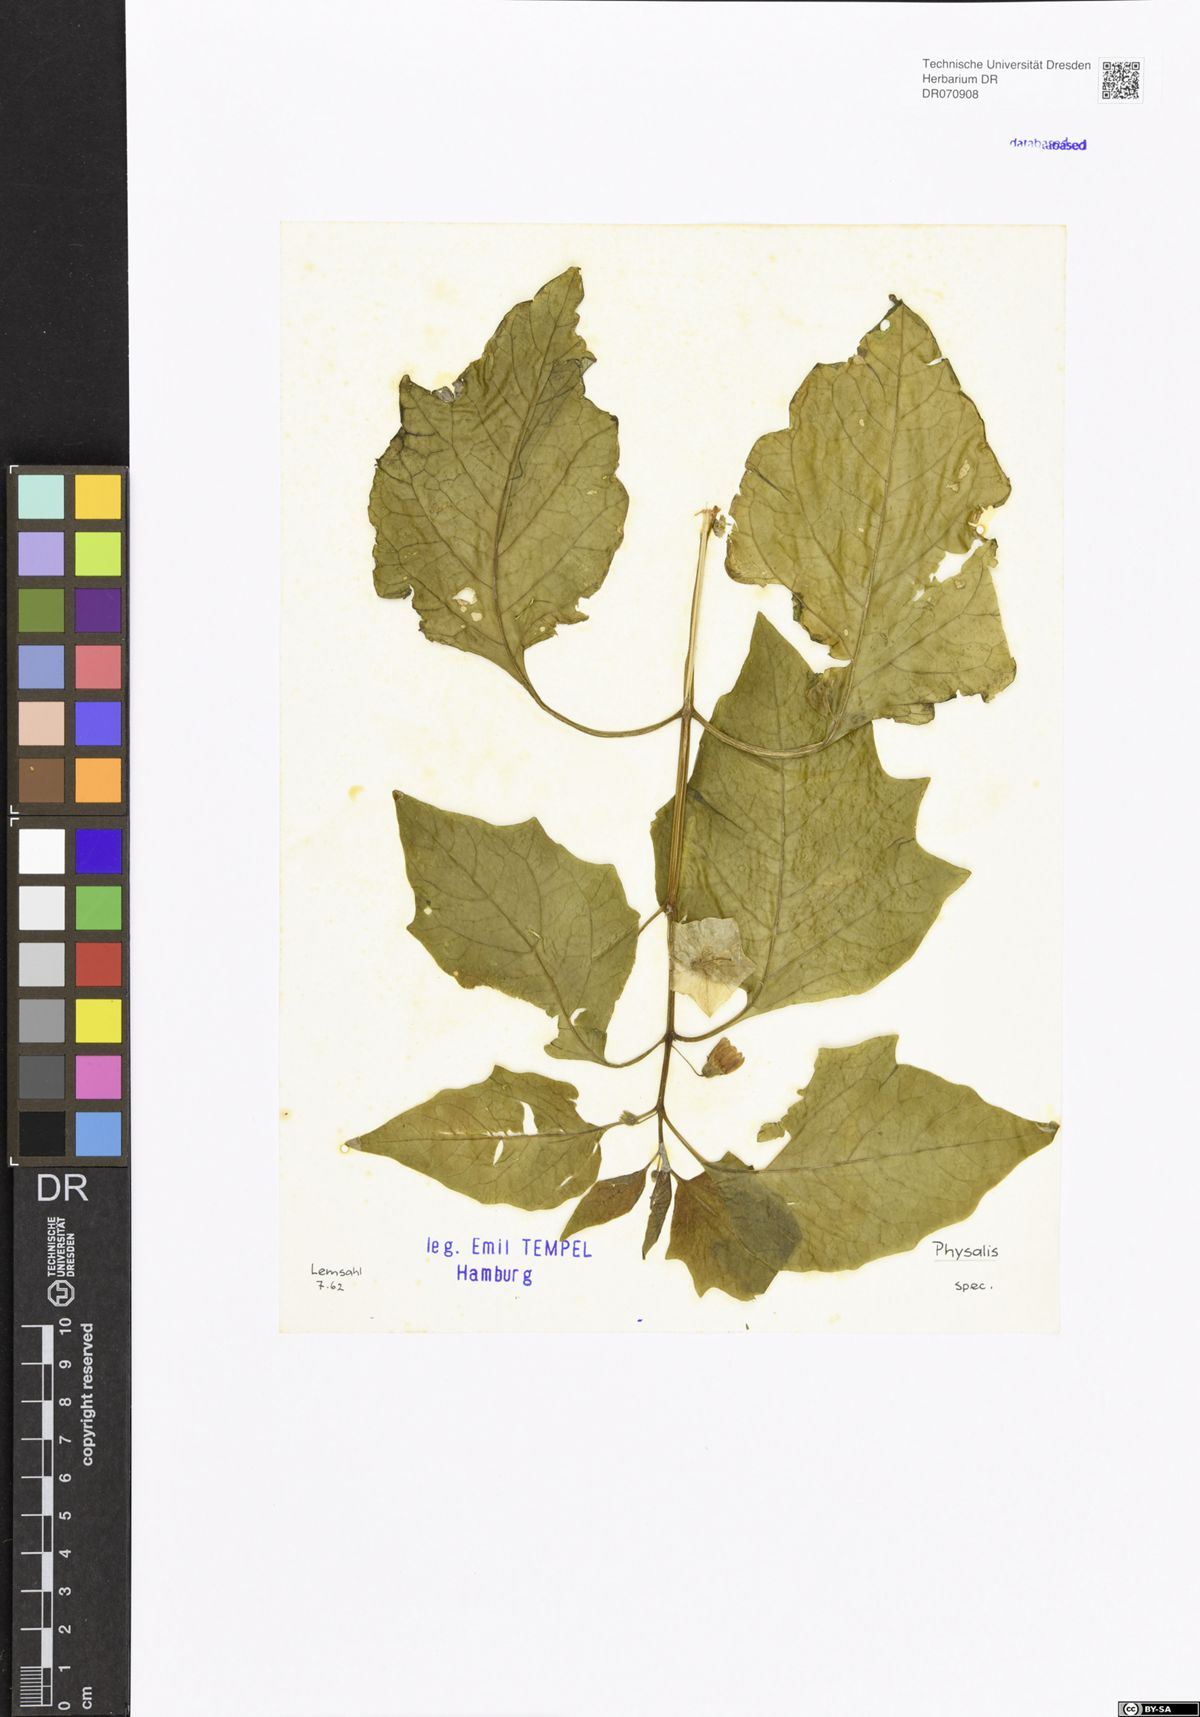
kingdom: Plantae
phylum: Tracheophyta
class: Magnoliopsida
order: Solanales
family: Solanaceae
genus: Physalis
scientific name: Physalis
